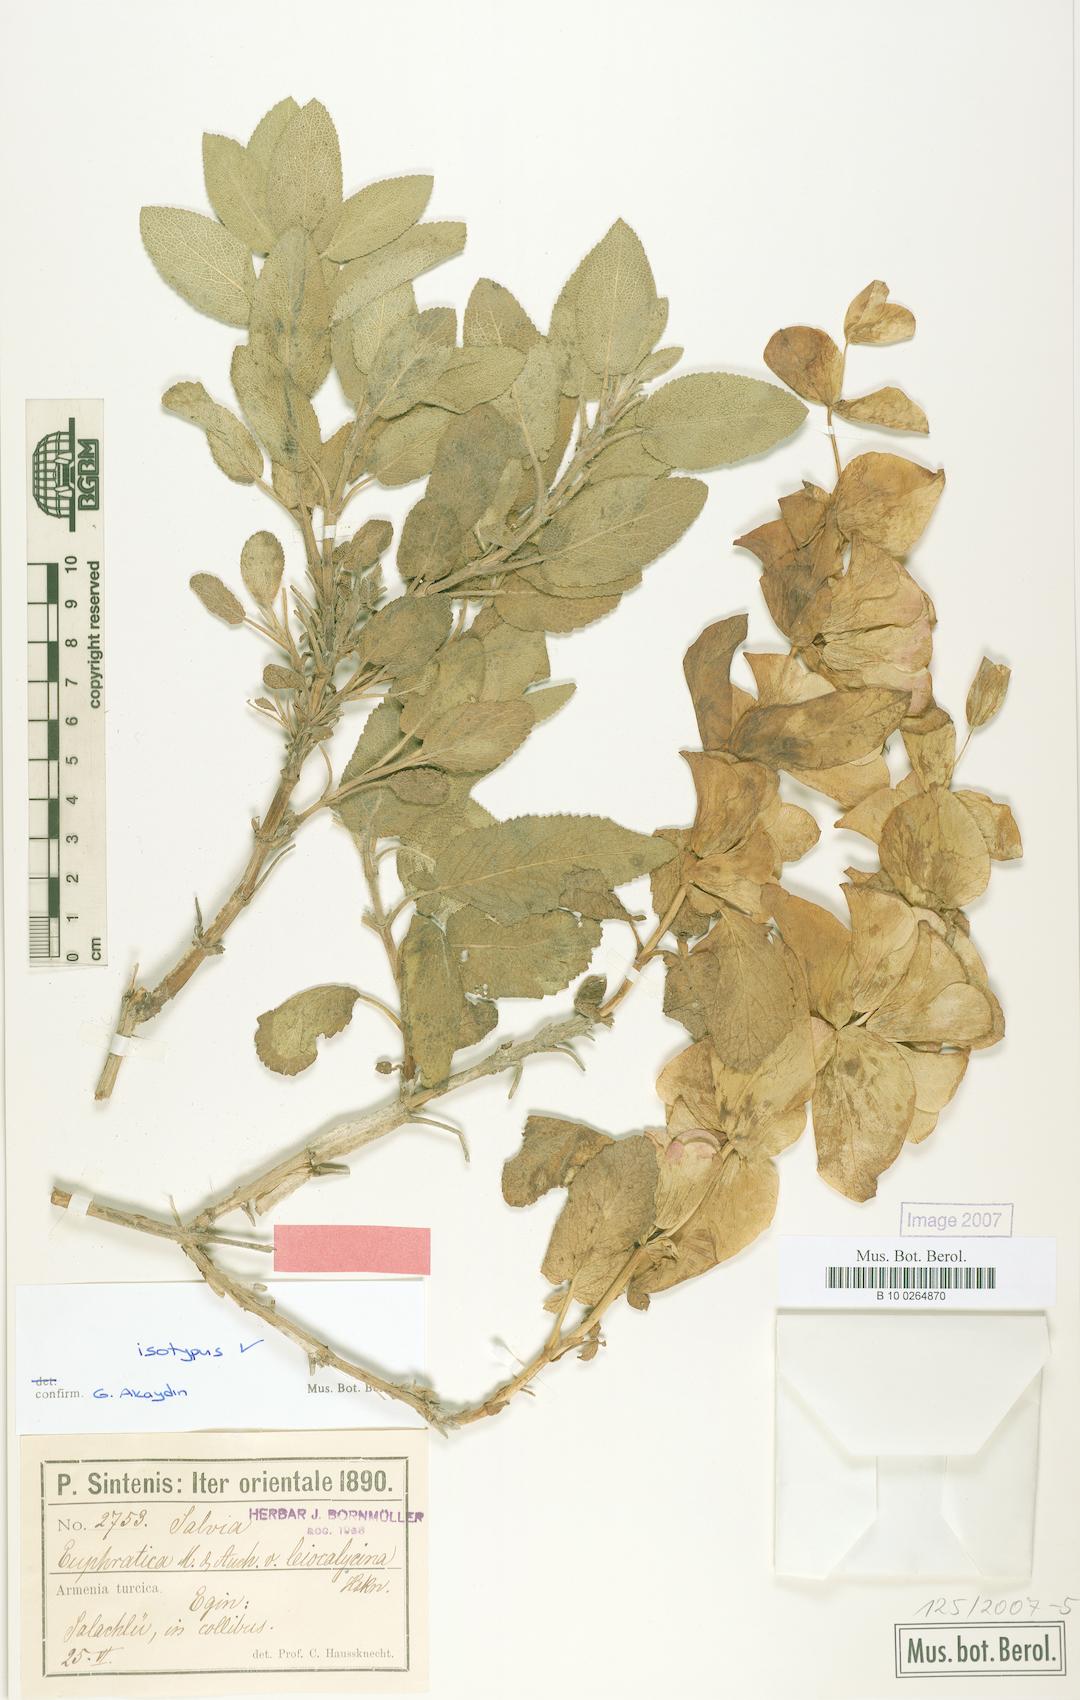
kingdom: Plantae
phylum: Tracheophyta
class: Magnoliopsida
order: Lamiales
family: Lamiaceae
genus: Salvia
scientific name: Salvia euphratica
